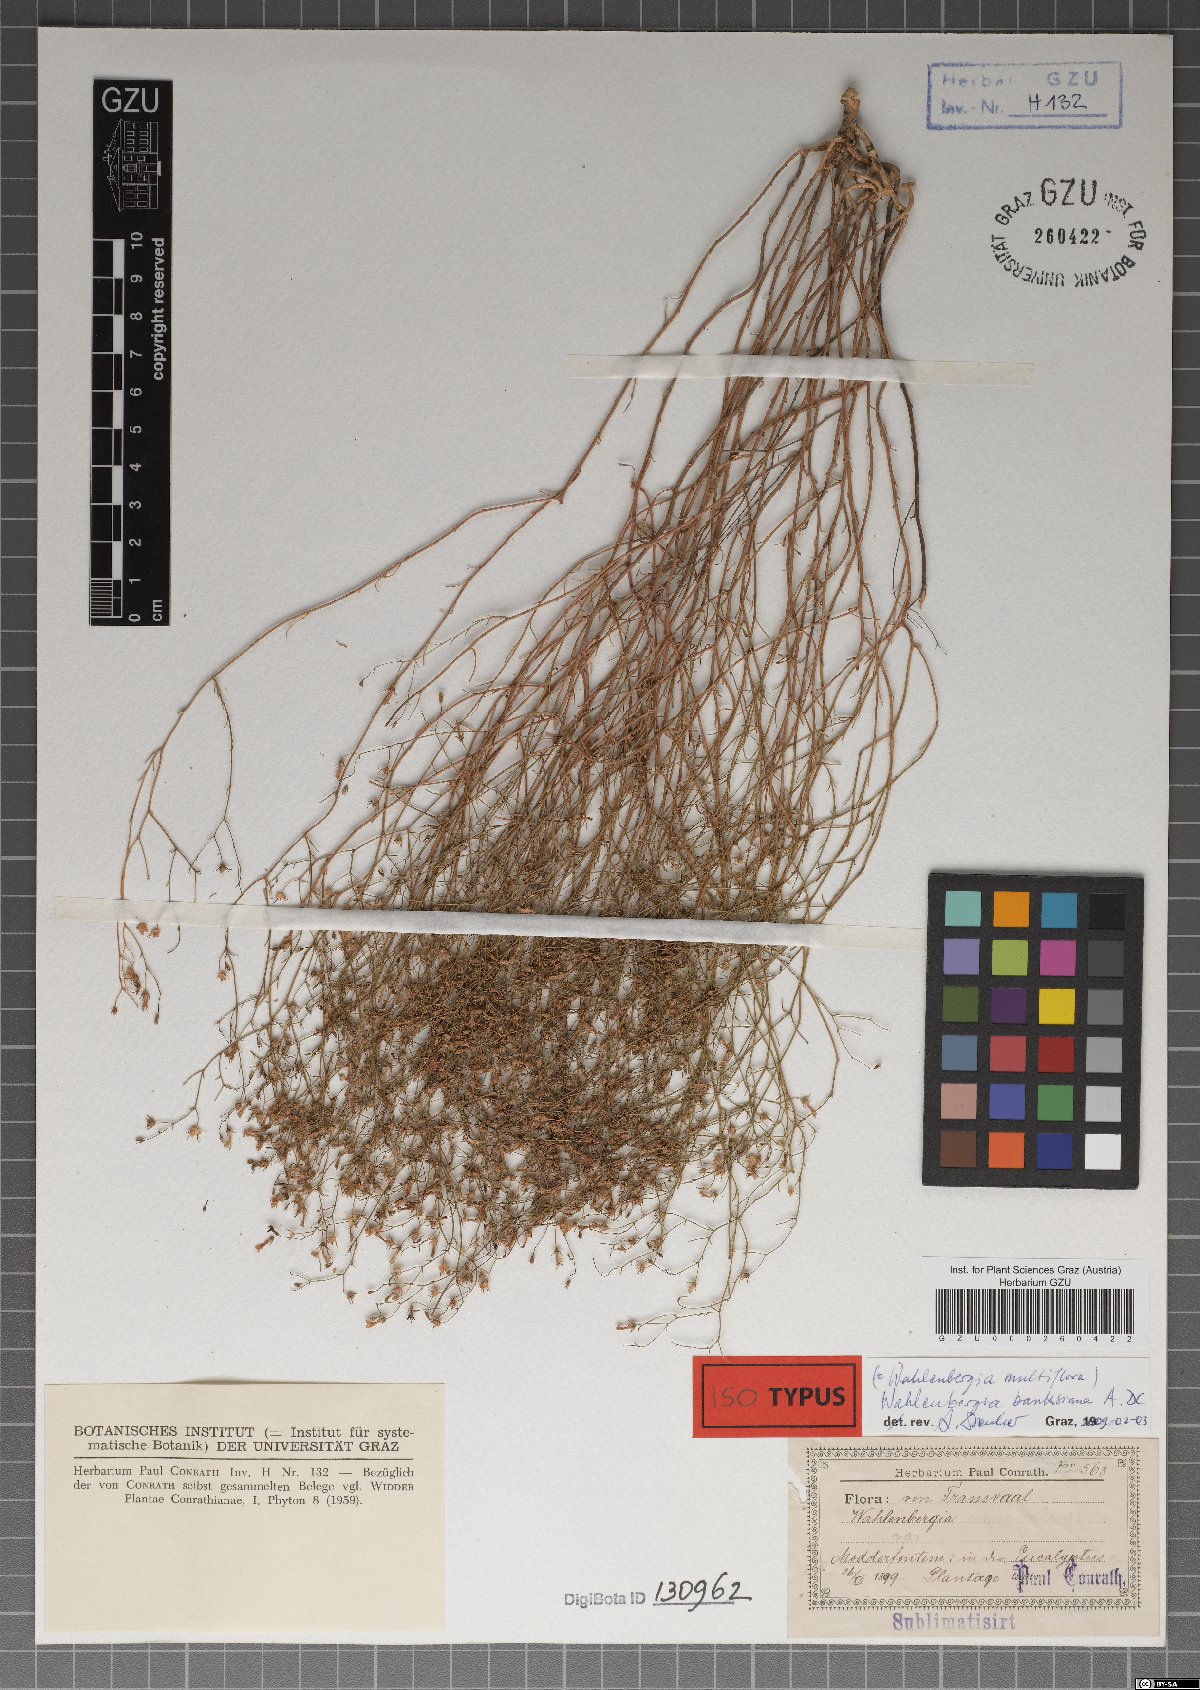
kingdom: Plantae
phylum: Tracheophyta
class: Magnoliopsida
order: Asterales
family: Campanulaceae
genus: Wahlenbergia
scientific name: Wahlenbergia banksiana
